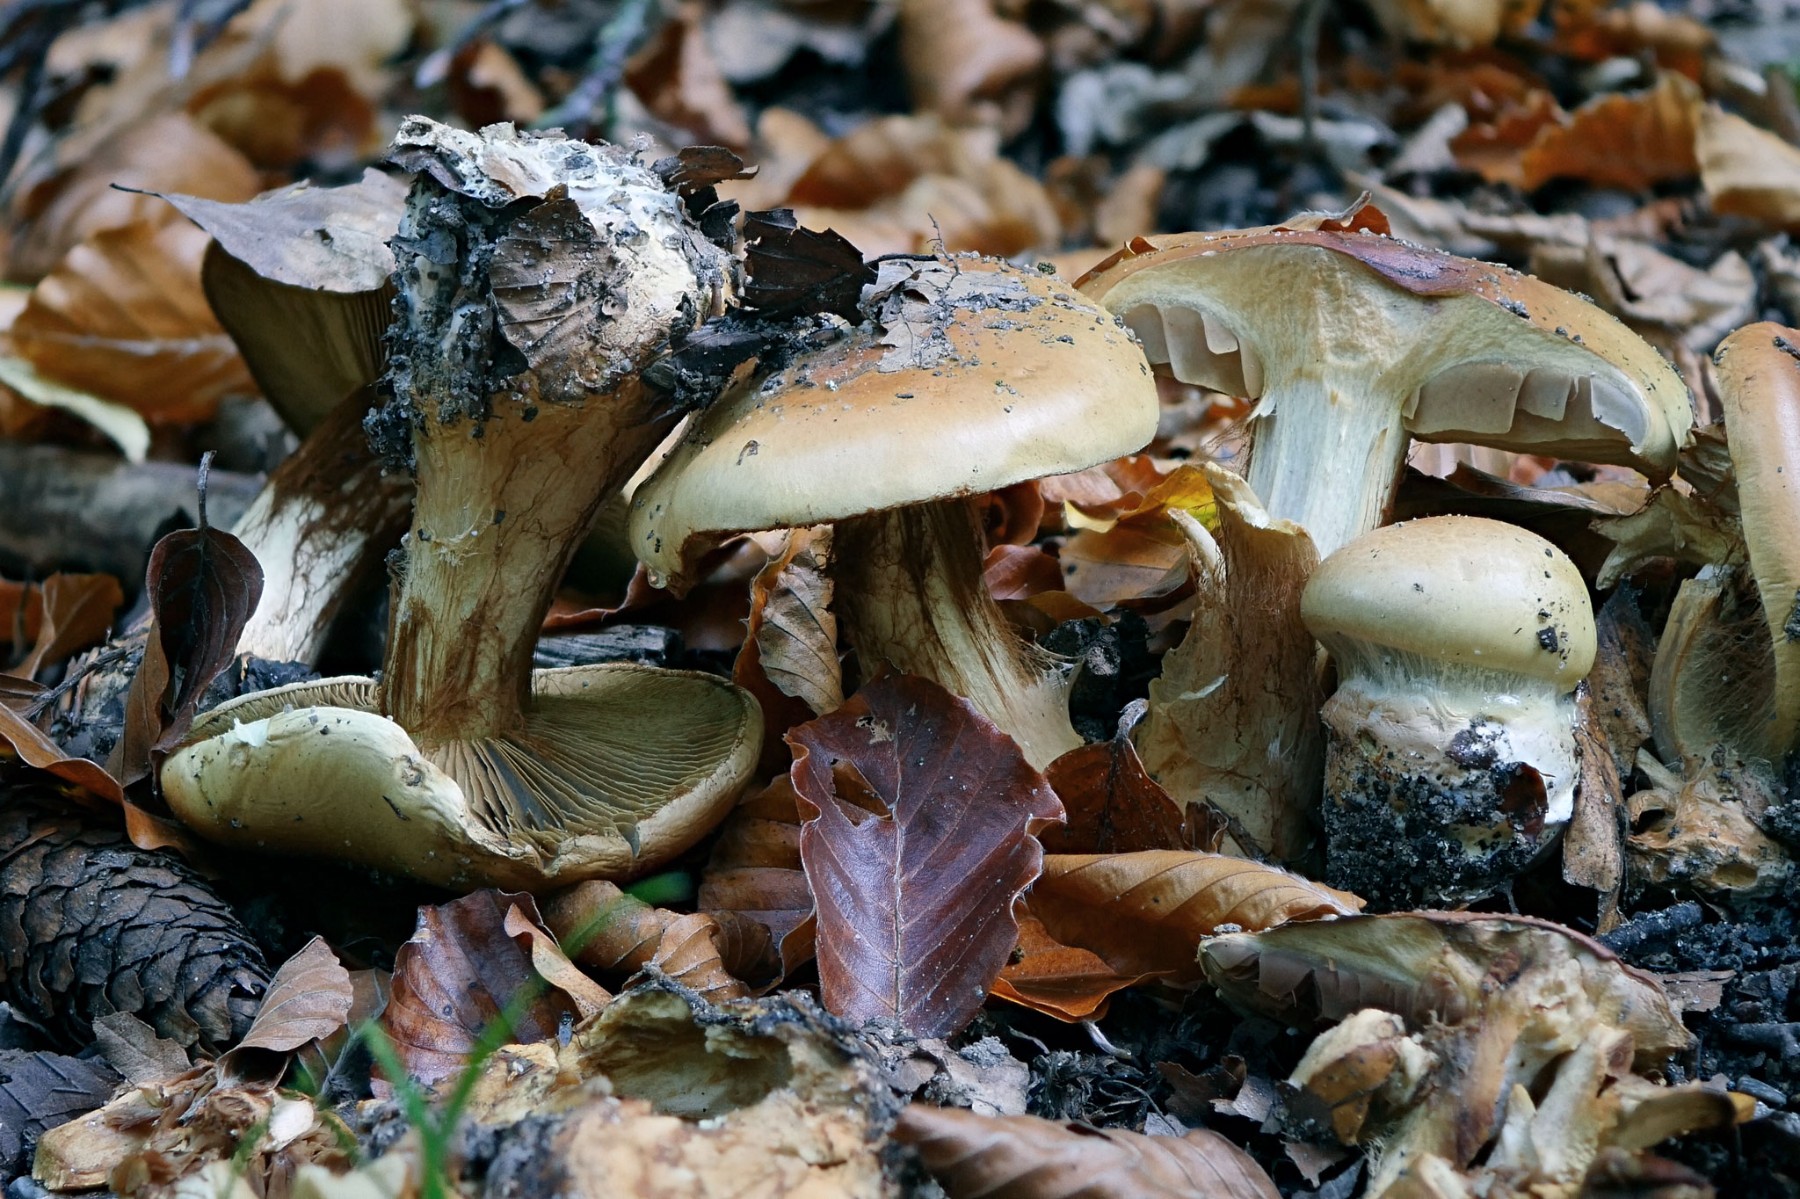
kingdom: Fungi
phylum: Basidiomycota
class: Agaricomycetes
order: Agaricales
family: Cortinariaceae
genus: Calonarius
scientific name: Calonarius elegantissimus
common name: orangegylden slørhat
